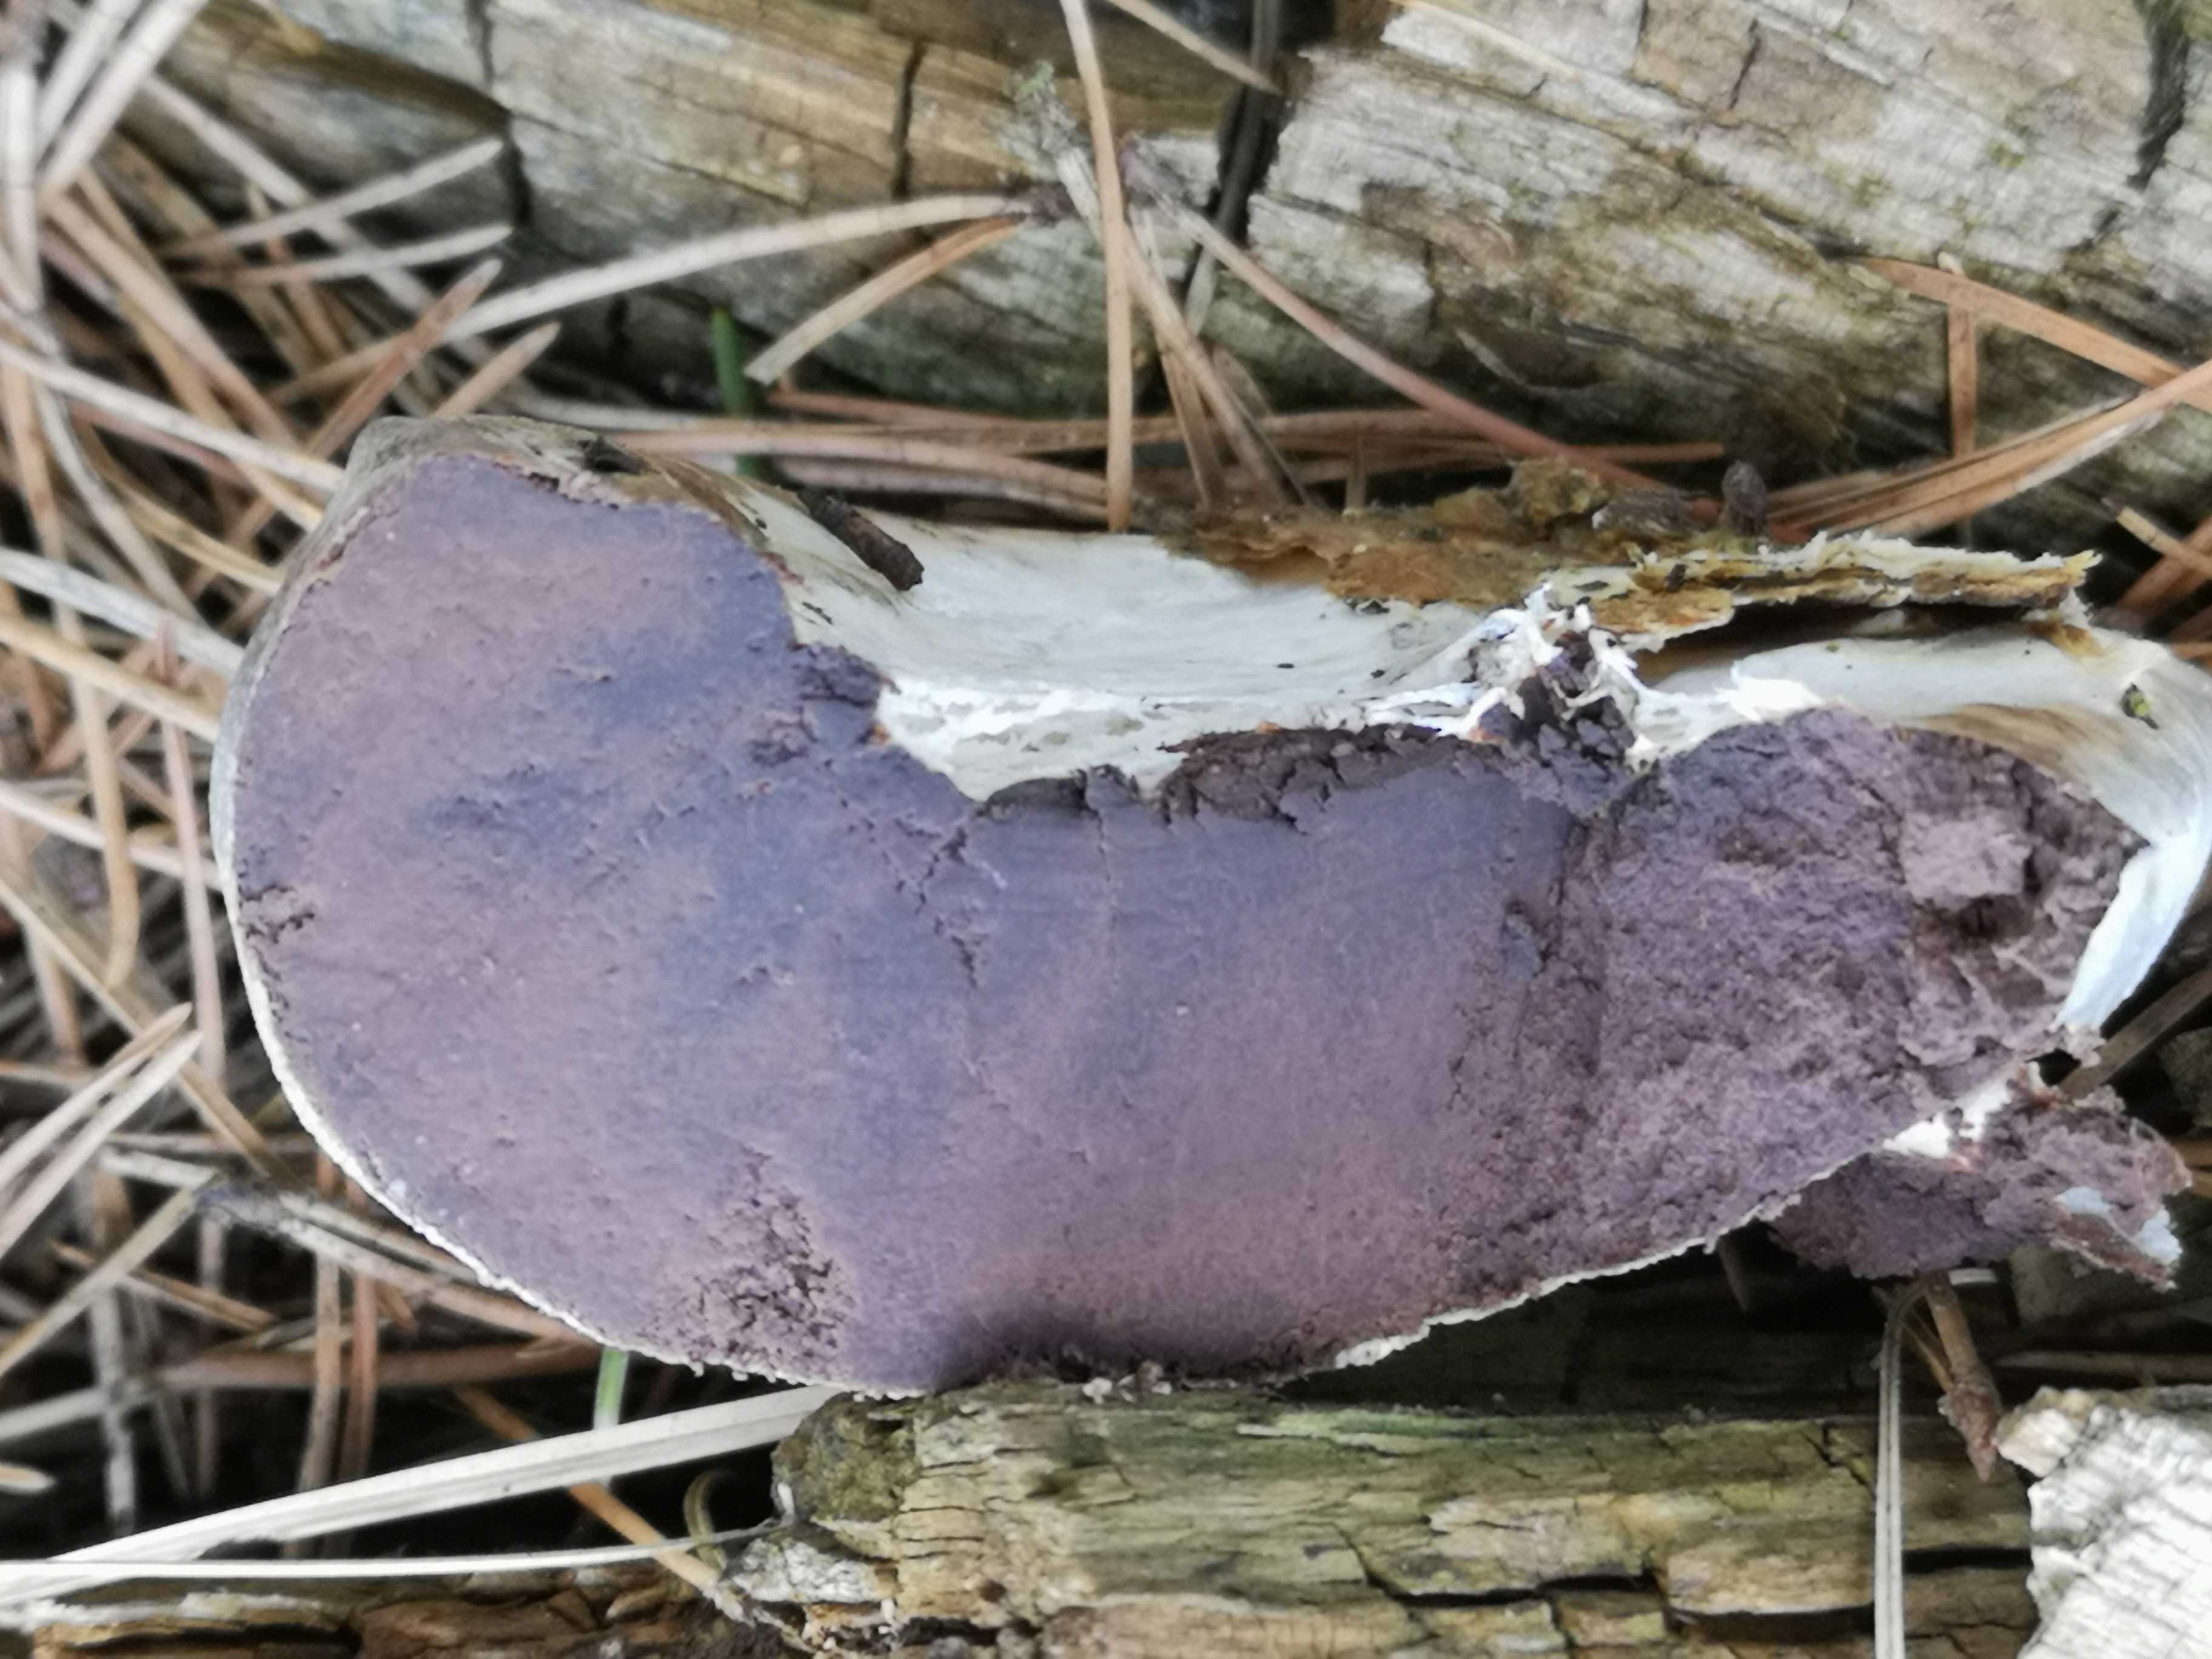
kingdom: Protozoa
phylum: Mycetozoa
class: Myxomycetes
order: Cribrariales
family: Tubiferaceae
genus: Reticularia
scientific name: Reticularia lycoperdon
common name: skinnende støvpude
